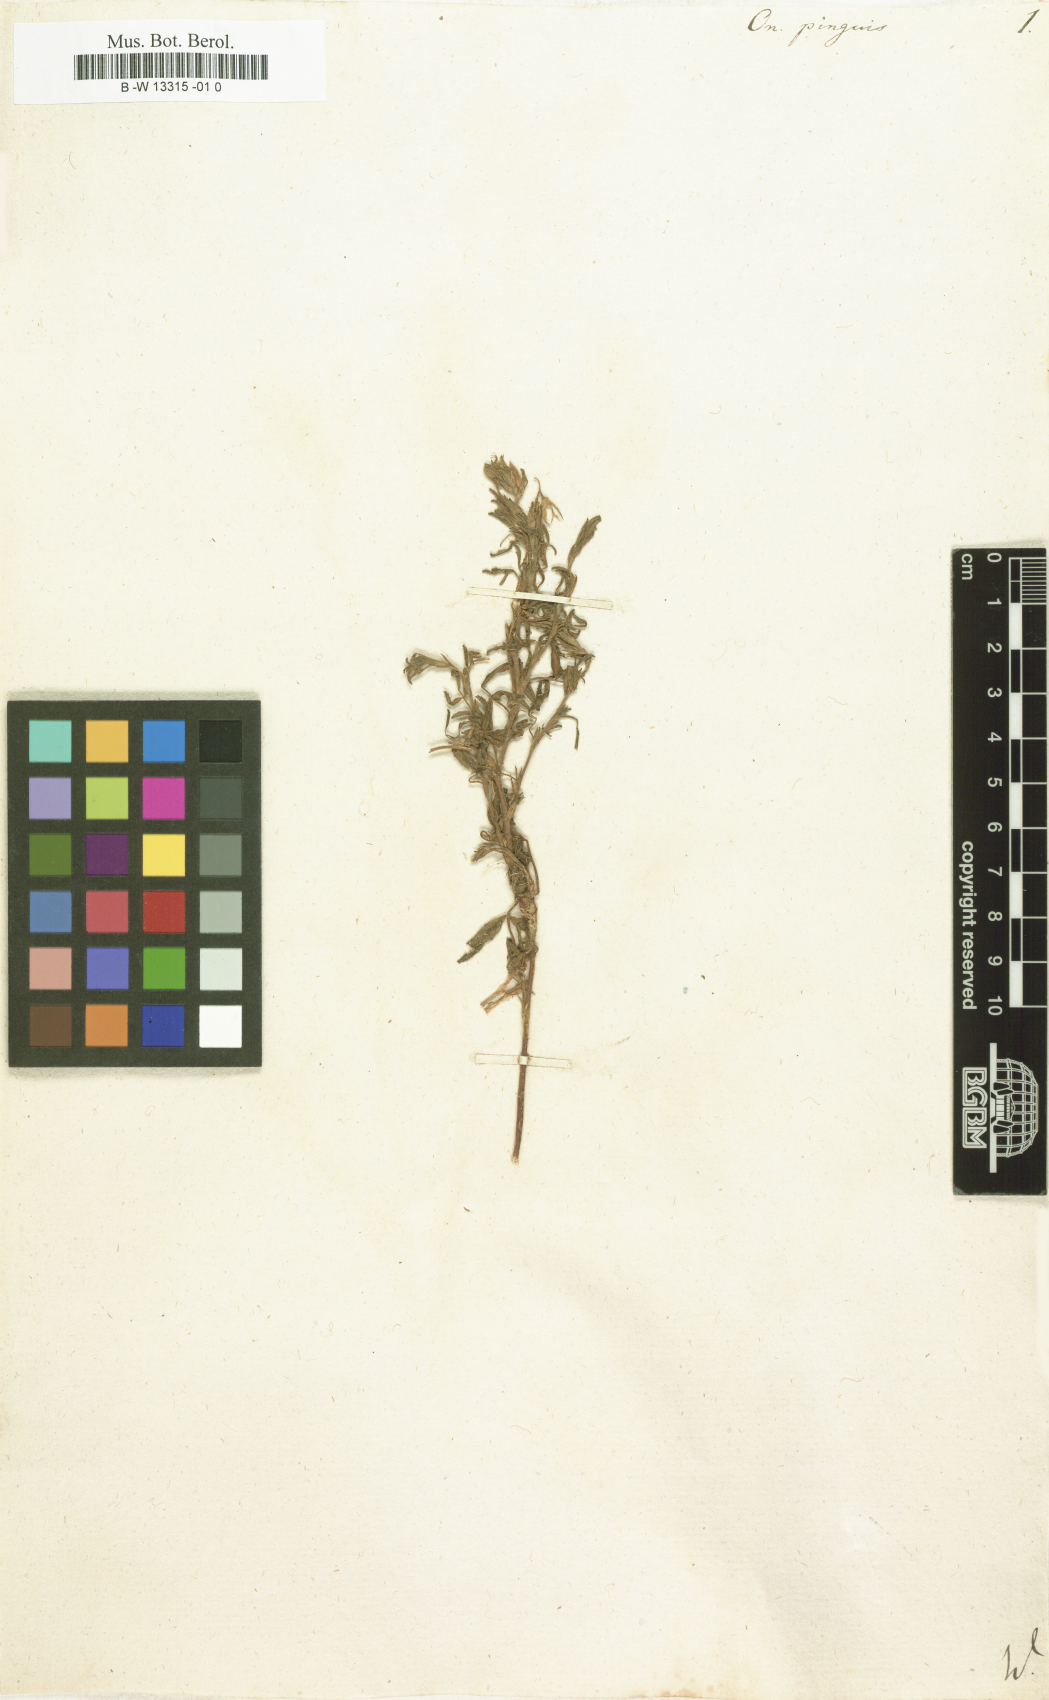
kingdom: Plantae
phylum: Tracheophyta
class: Magnoliopsida
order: Fabales
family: Fabaceae
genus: Ononis
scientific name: Ononis natrix
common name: Yellow restharrow
